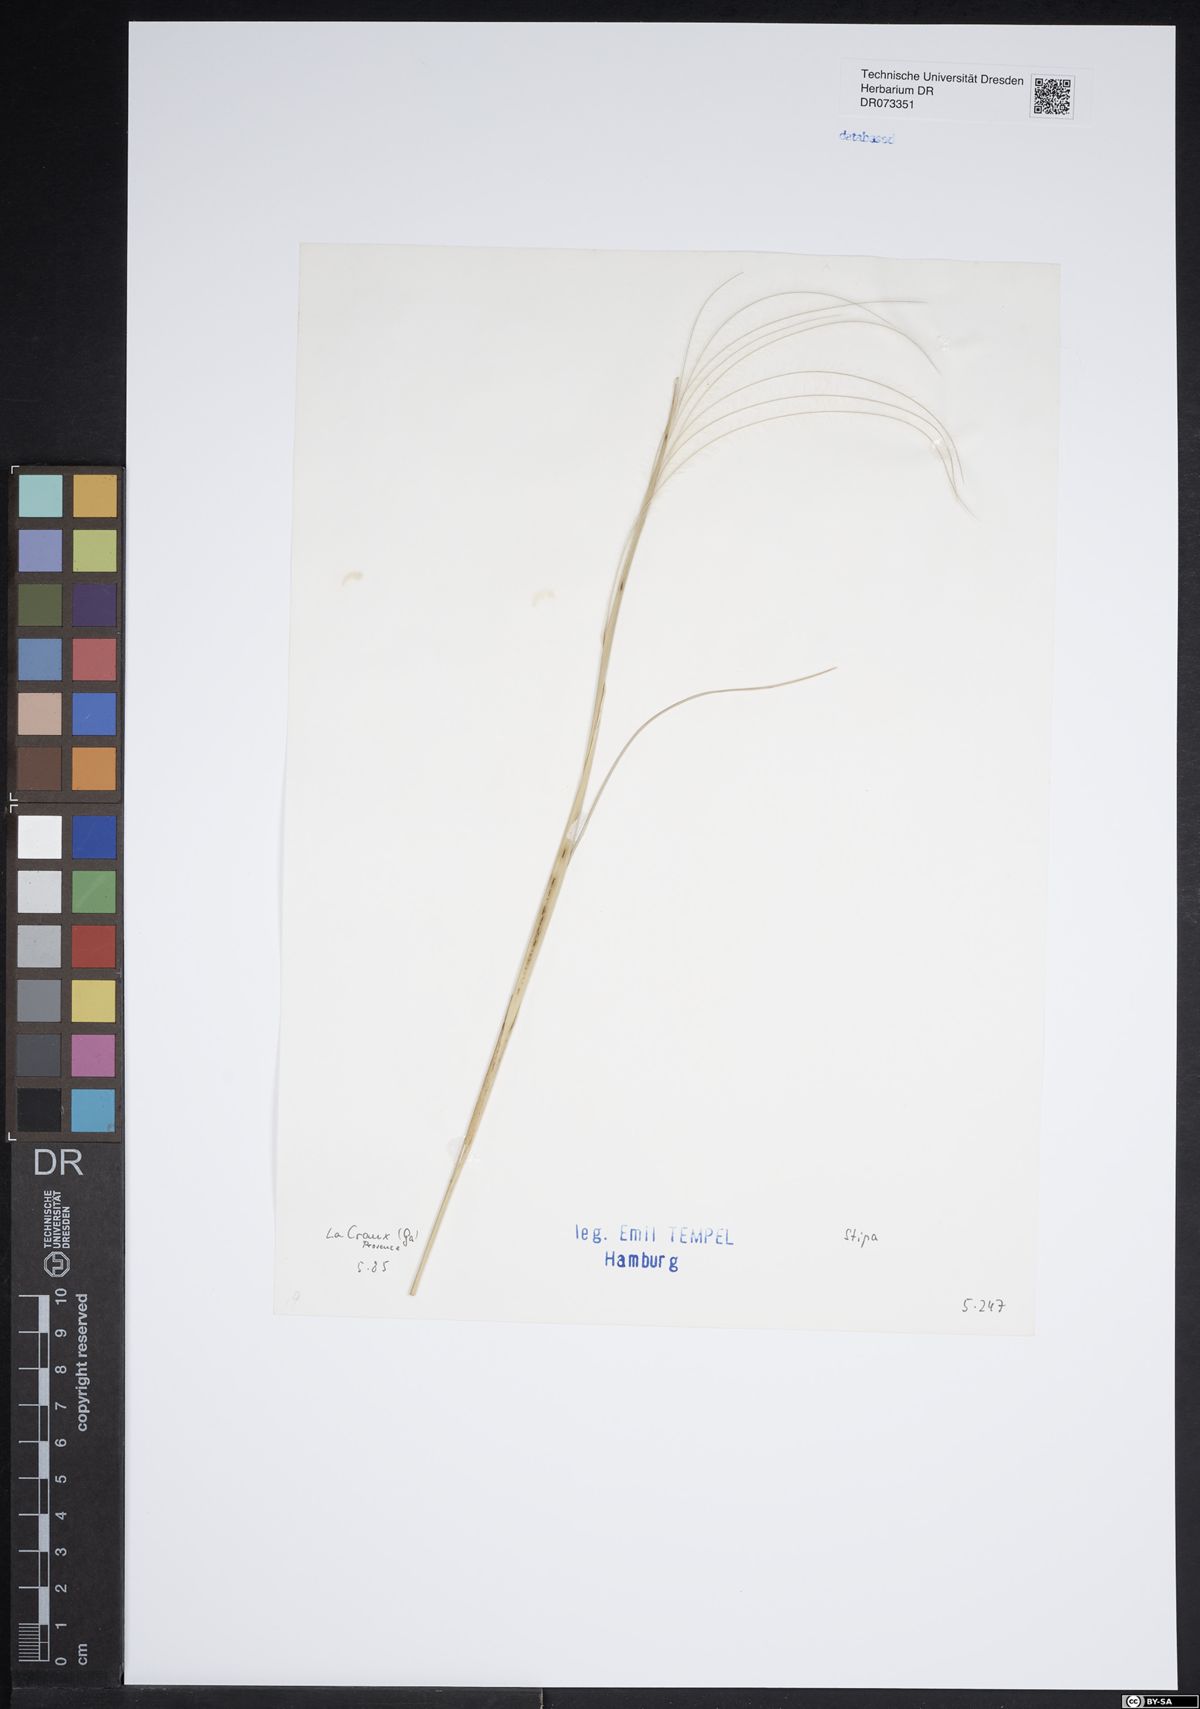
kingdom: Plantae
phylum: Tracheophyta
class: Liliopsida
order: Poales
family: Poaceae
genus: Stipa
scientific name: Stipa
